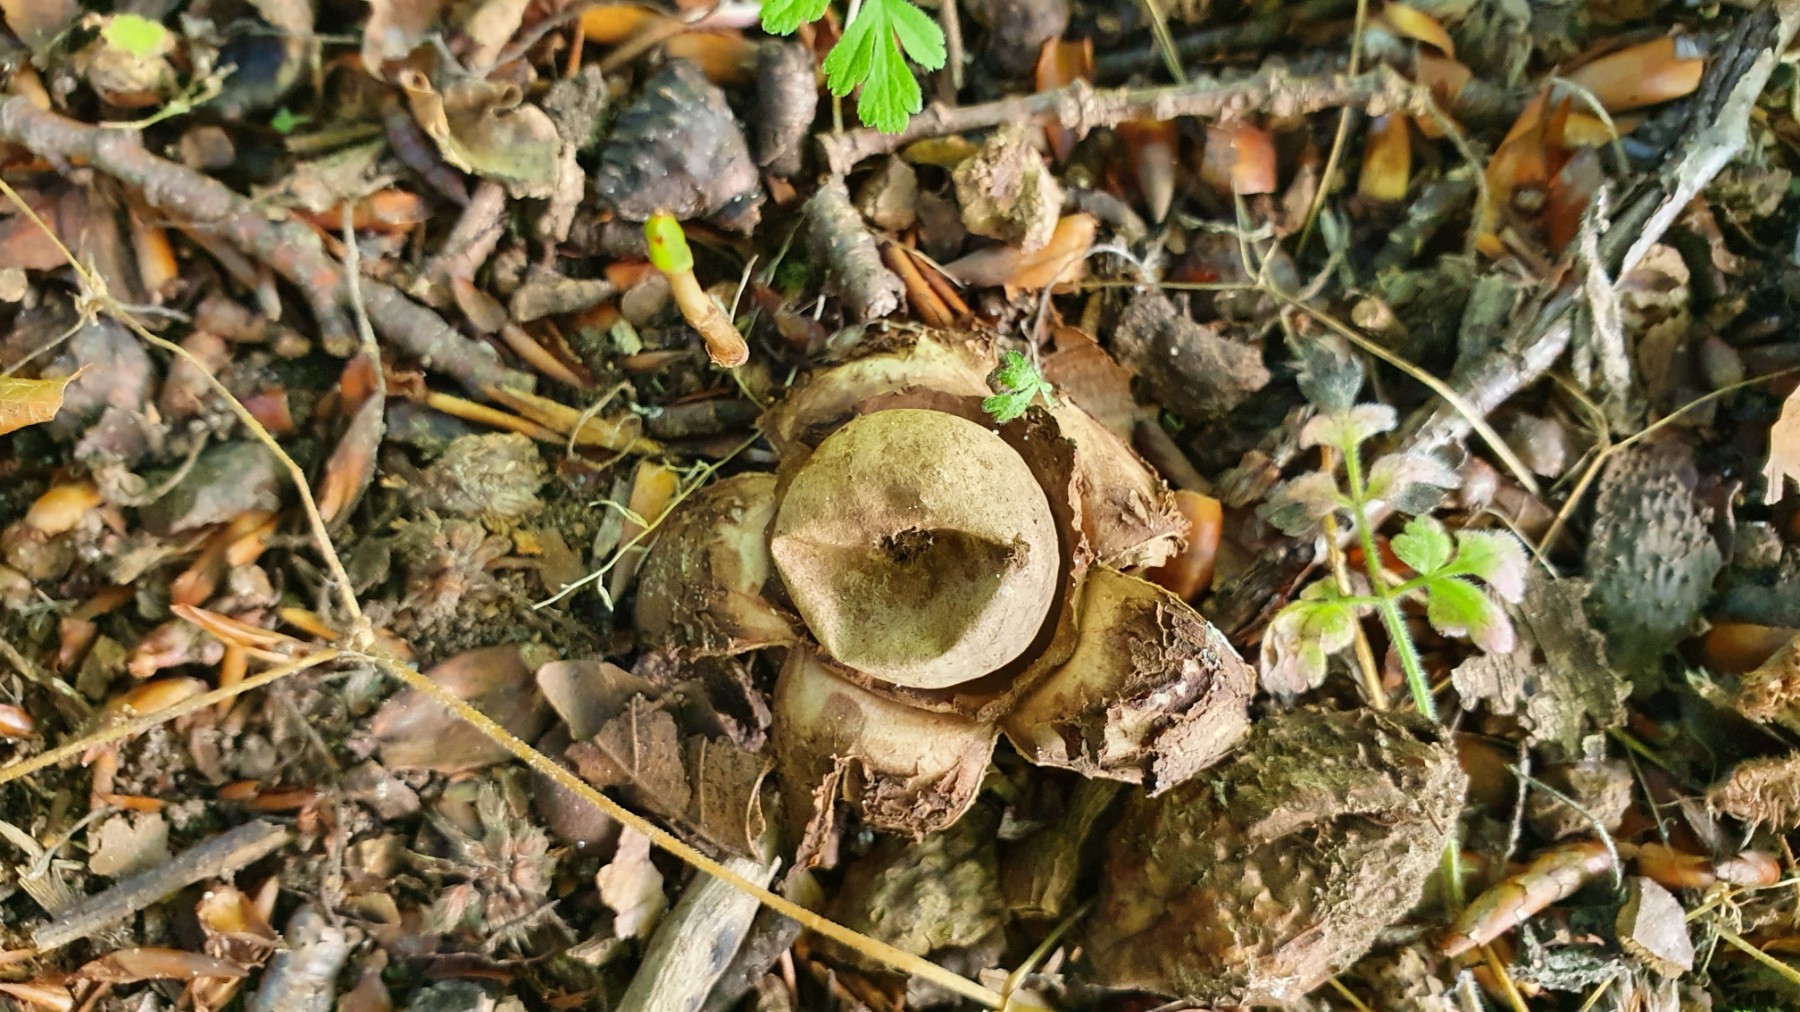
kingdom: Fungi
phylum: Basidiomycota
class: Agaricomycetes
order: Geastrales
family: Geastraceae
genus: Geastrum
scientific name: Geastrum michelianum
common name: kødet stjernebold
